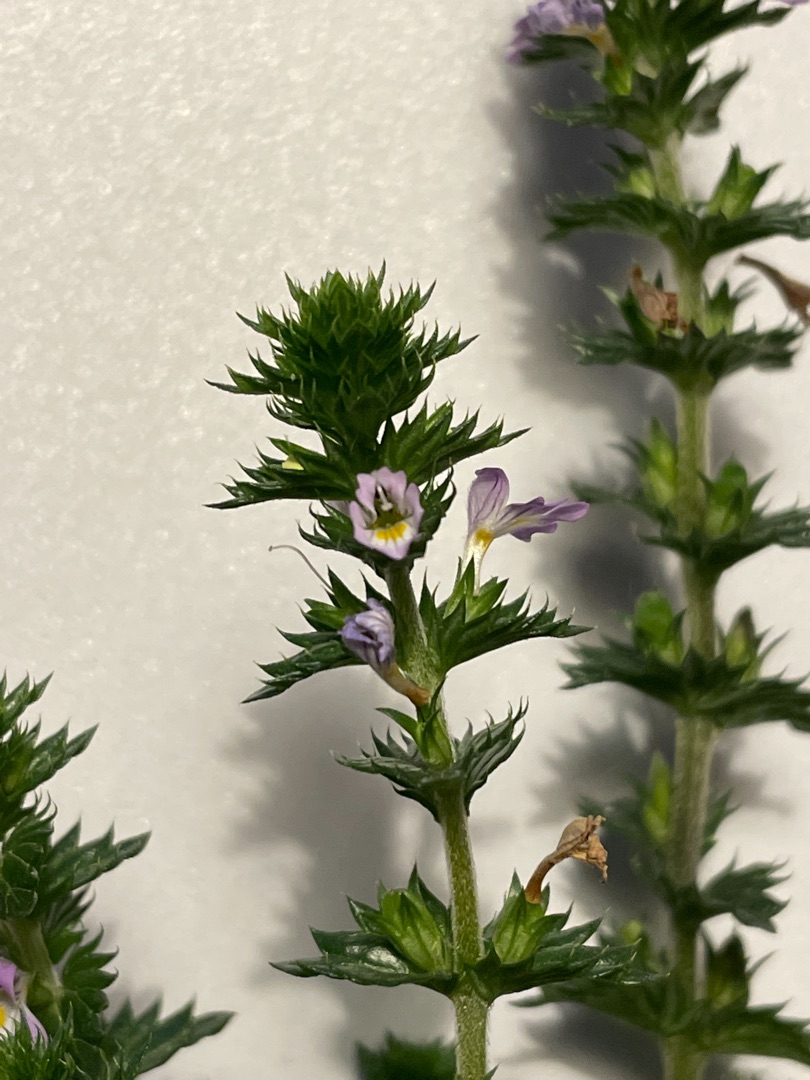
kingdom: Plantae
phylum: Tracheophyta
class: Magnoliopsida
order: Lamiales
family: Orobanchaceae
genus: Euphrasia
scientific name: Euphrasia stricta
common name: Spids øjentrøst
